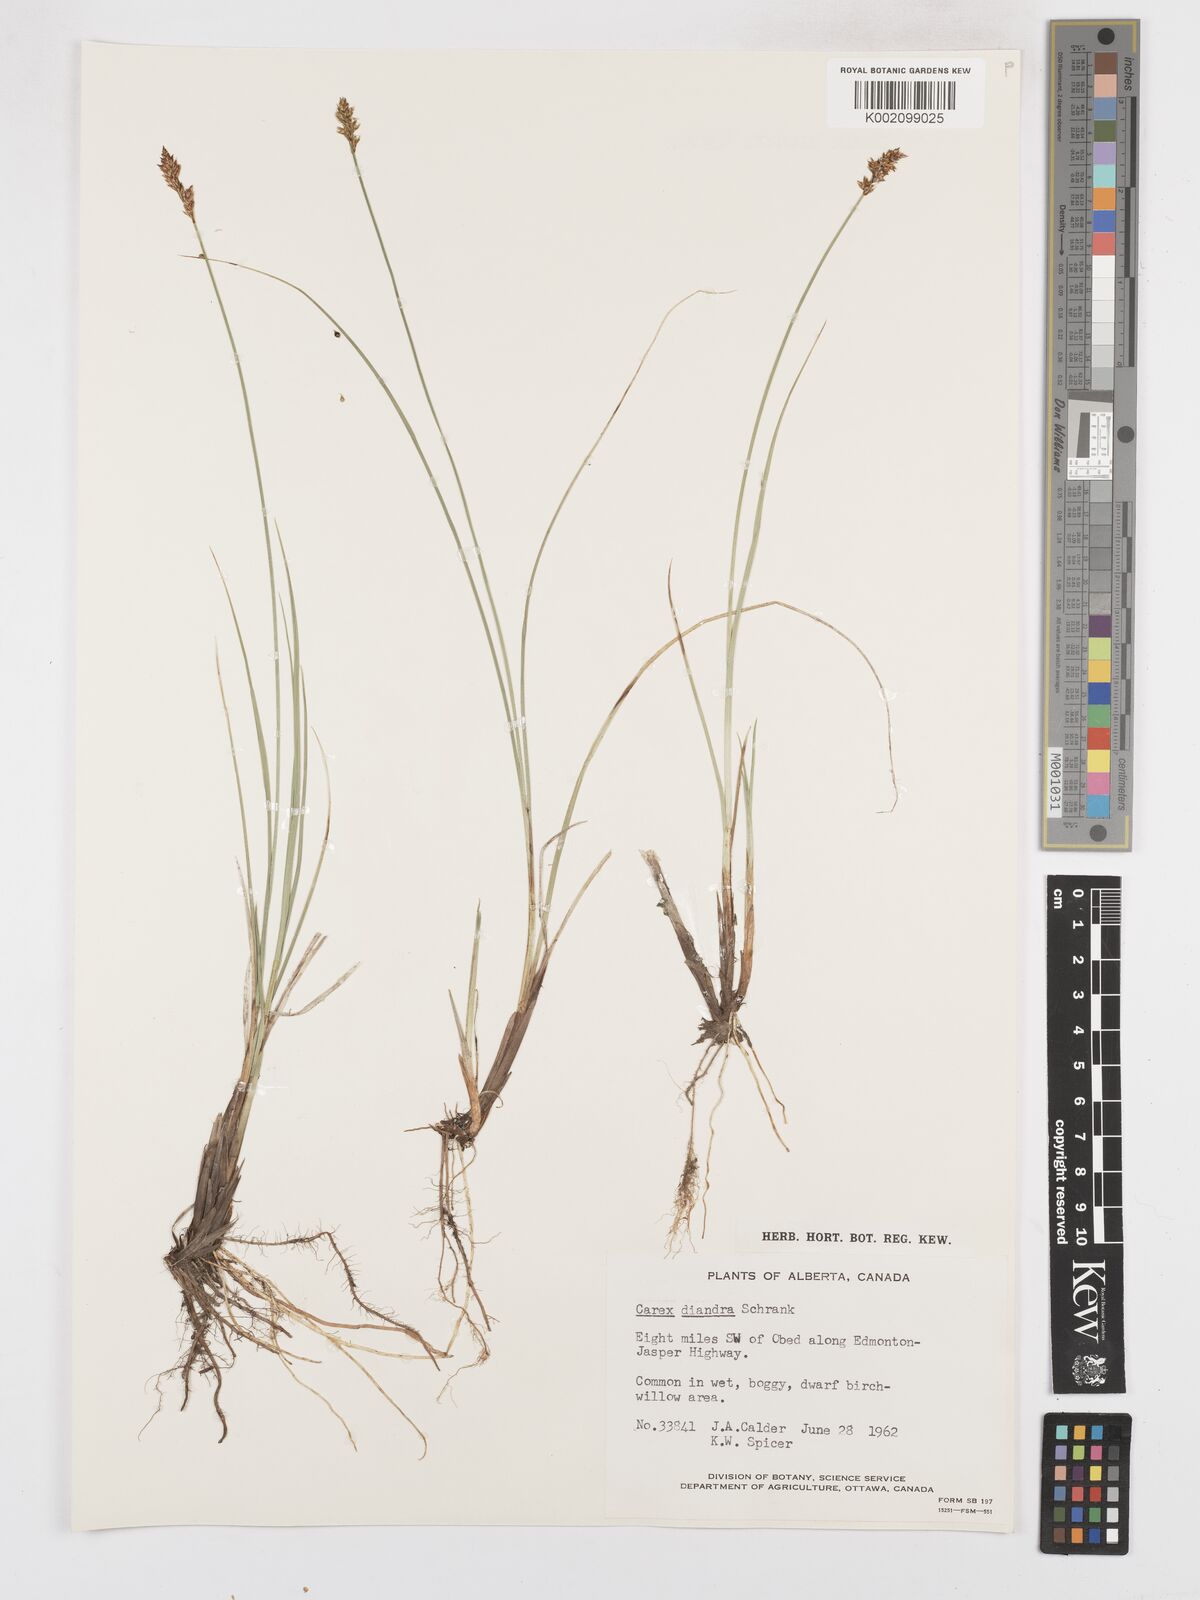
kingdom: Plantae
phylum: Tracheophyta
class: Liliopsida
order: Poales
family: Cyperaceae
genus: Carex
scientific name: Carex diandra
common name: Lesser tussock-sedge
